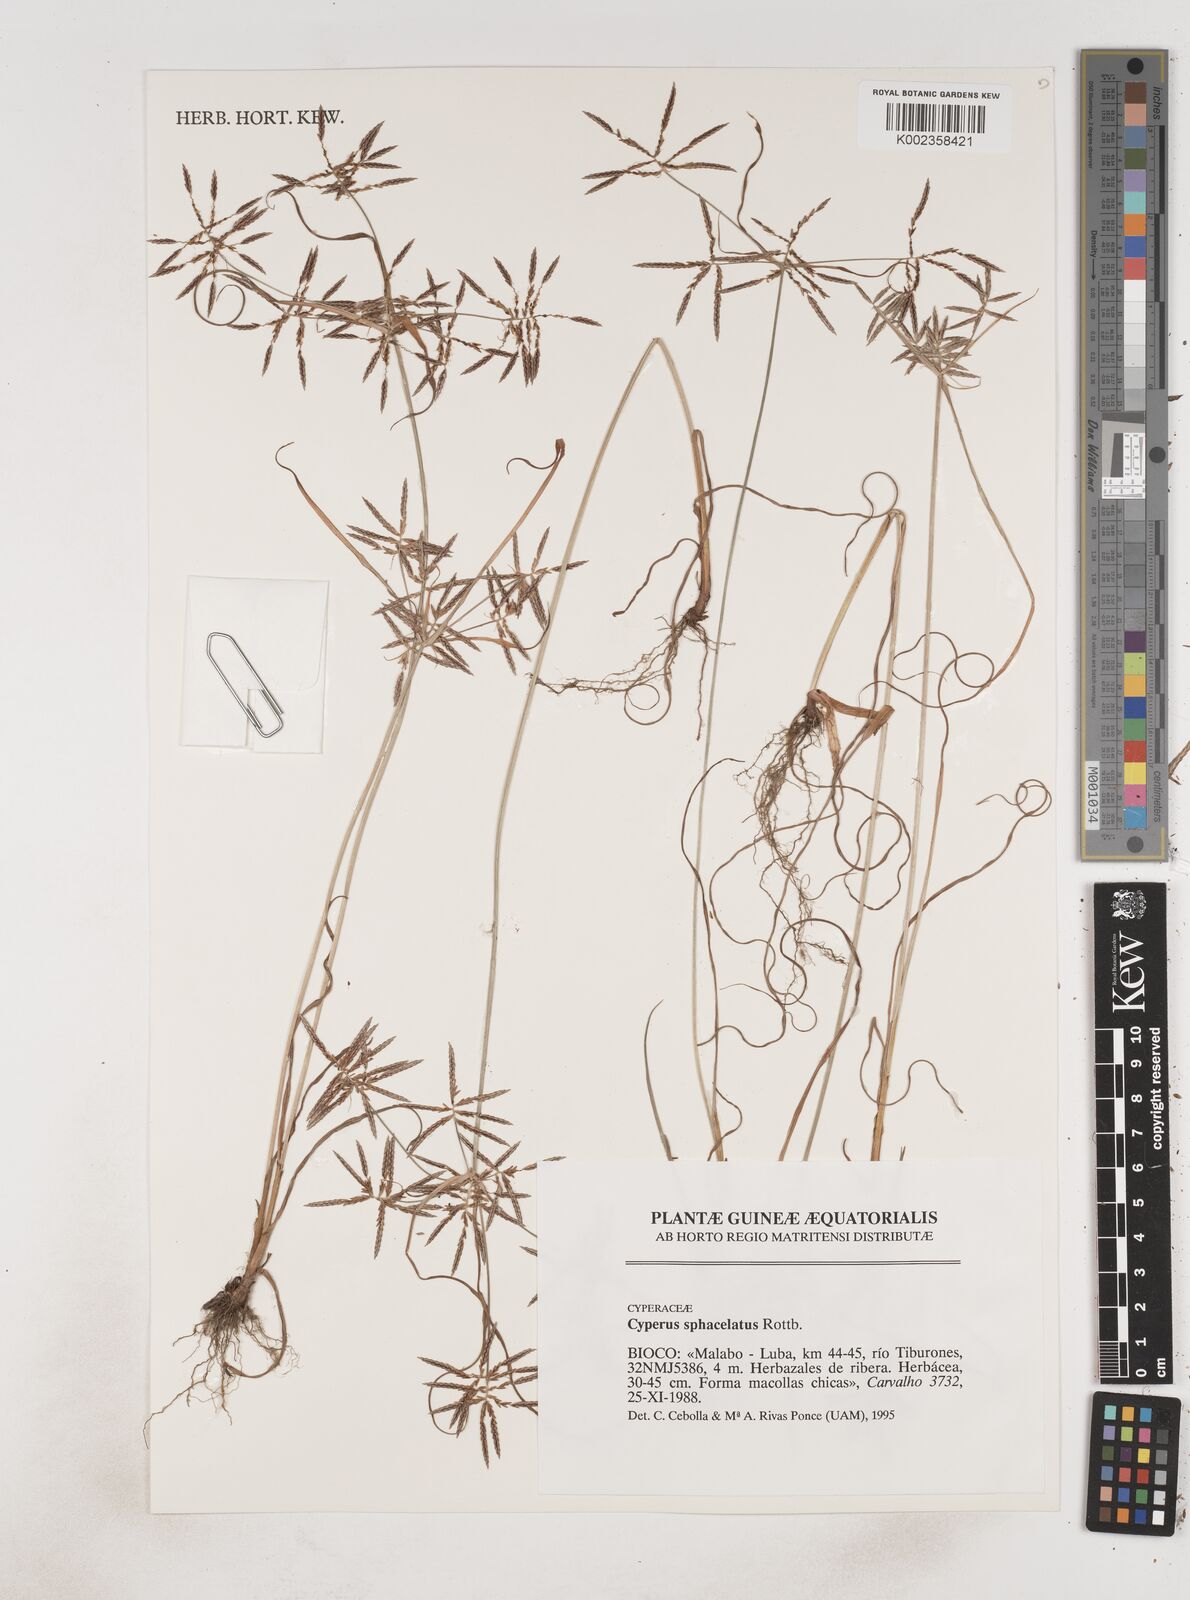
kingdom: Plantae
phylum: Tracheophyta
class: Liliopsida
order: Poales
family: Cyperaceae
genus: Cyperus
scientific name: Cyperus sphacelatus
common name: Roadside flatsedge
